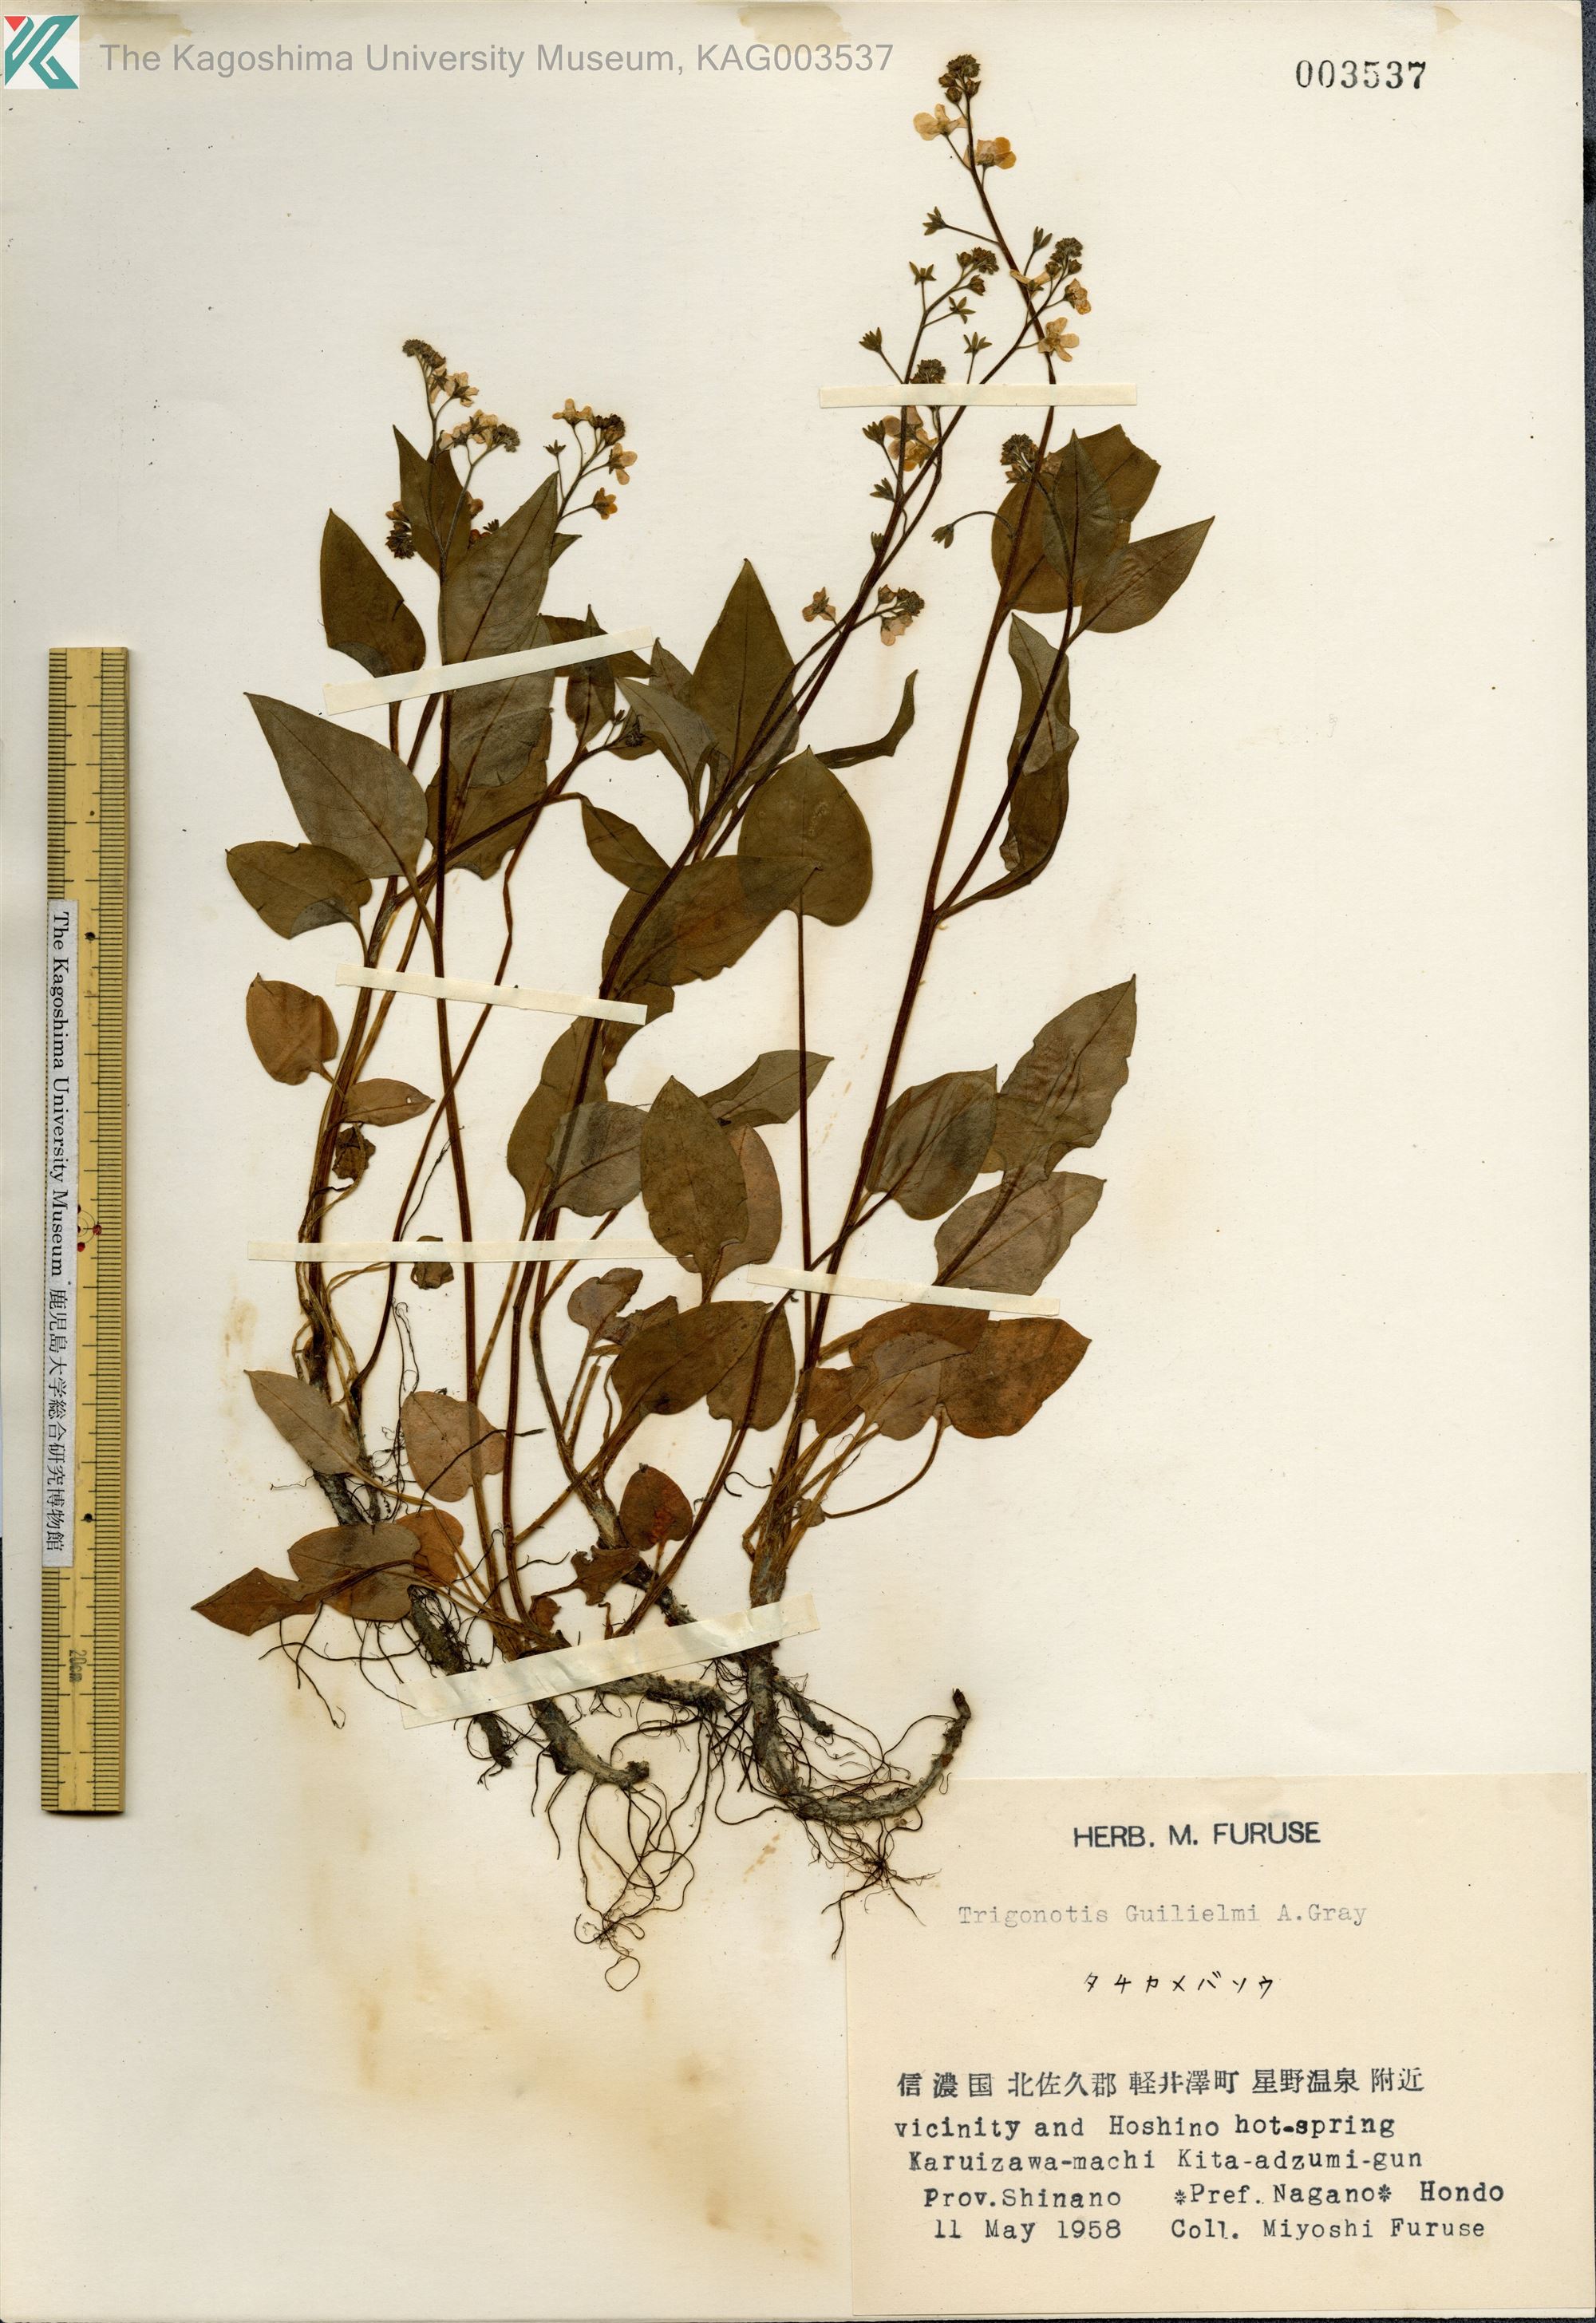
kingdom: Plantae
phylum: Tracheophyta
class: Magnoliopsida
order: Boraginales
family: Boraginaceae
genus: Trigonotis
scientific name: Trigonotis guilielmii
